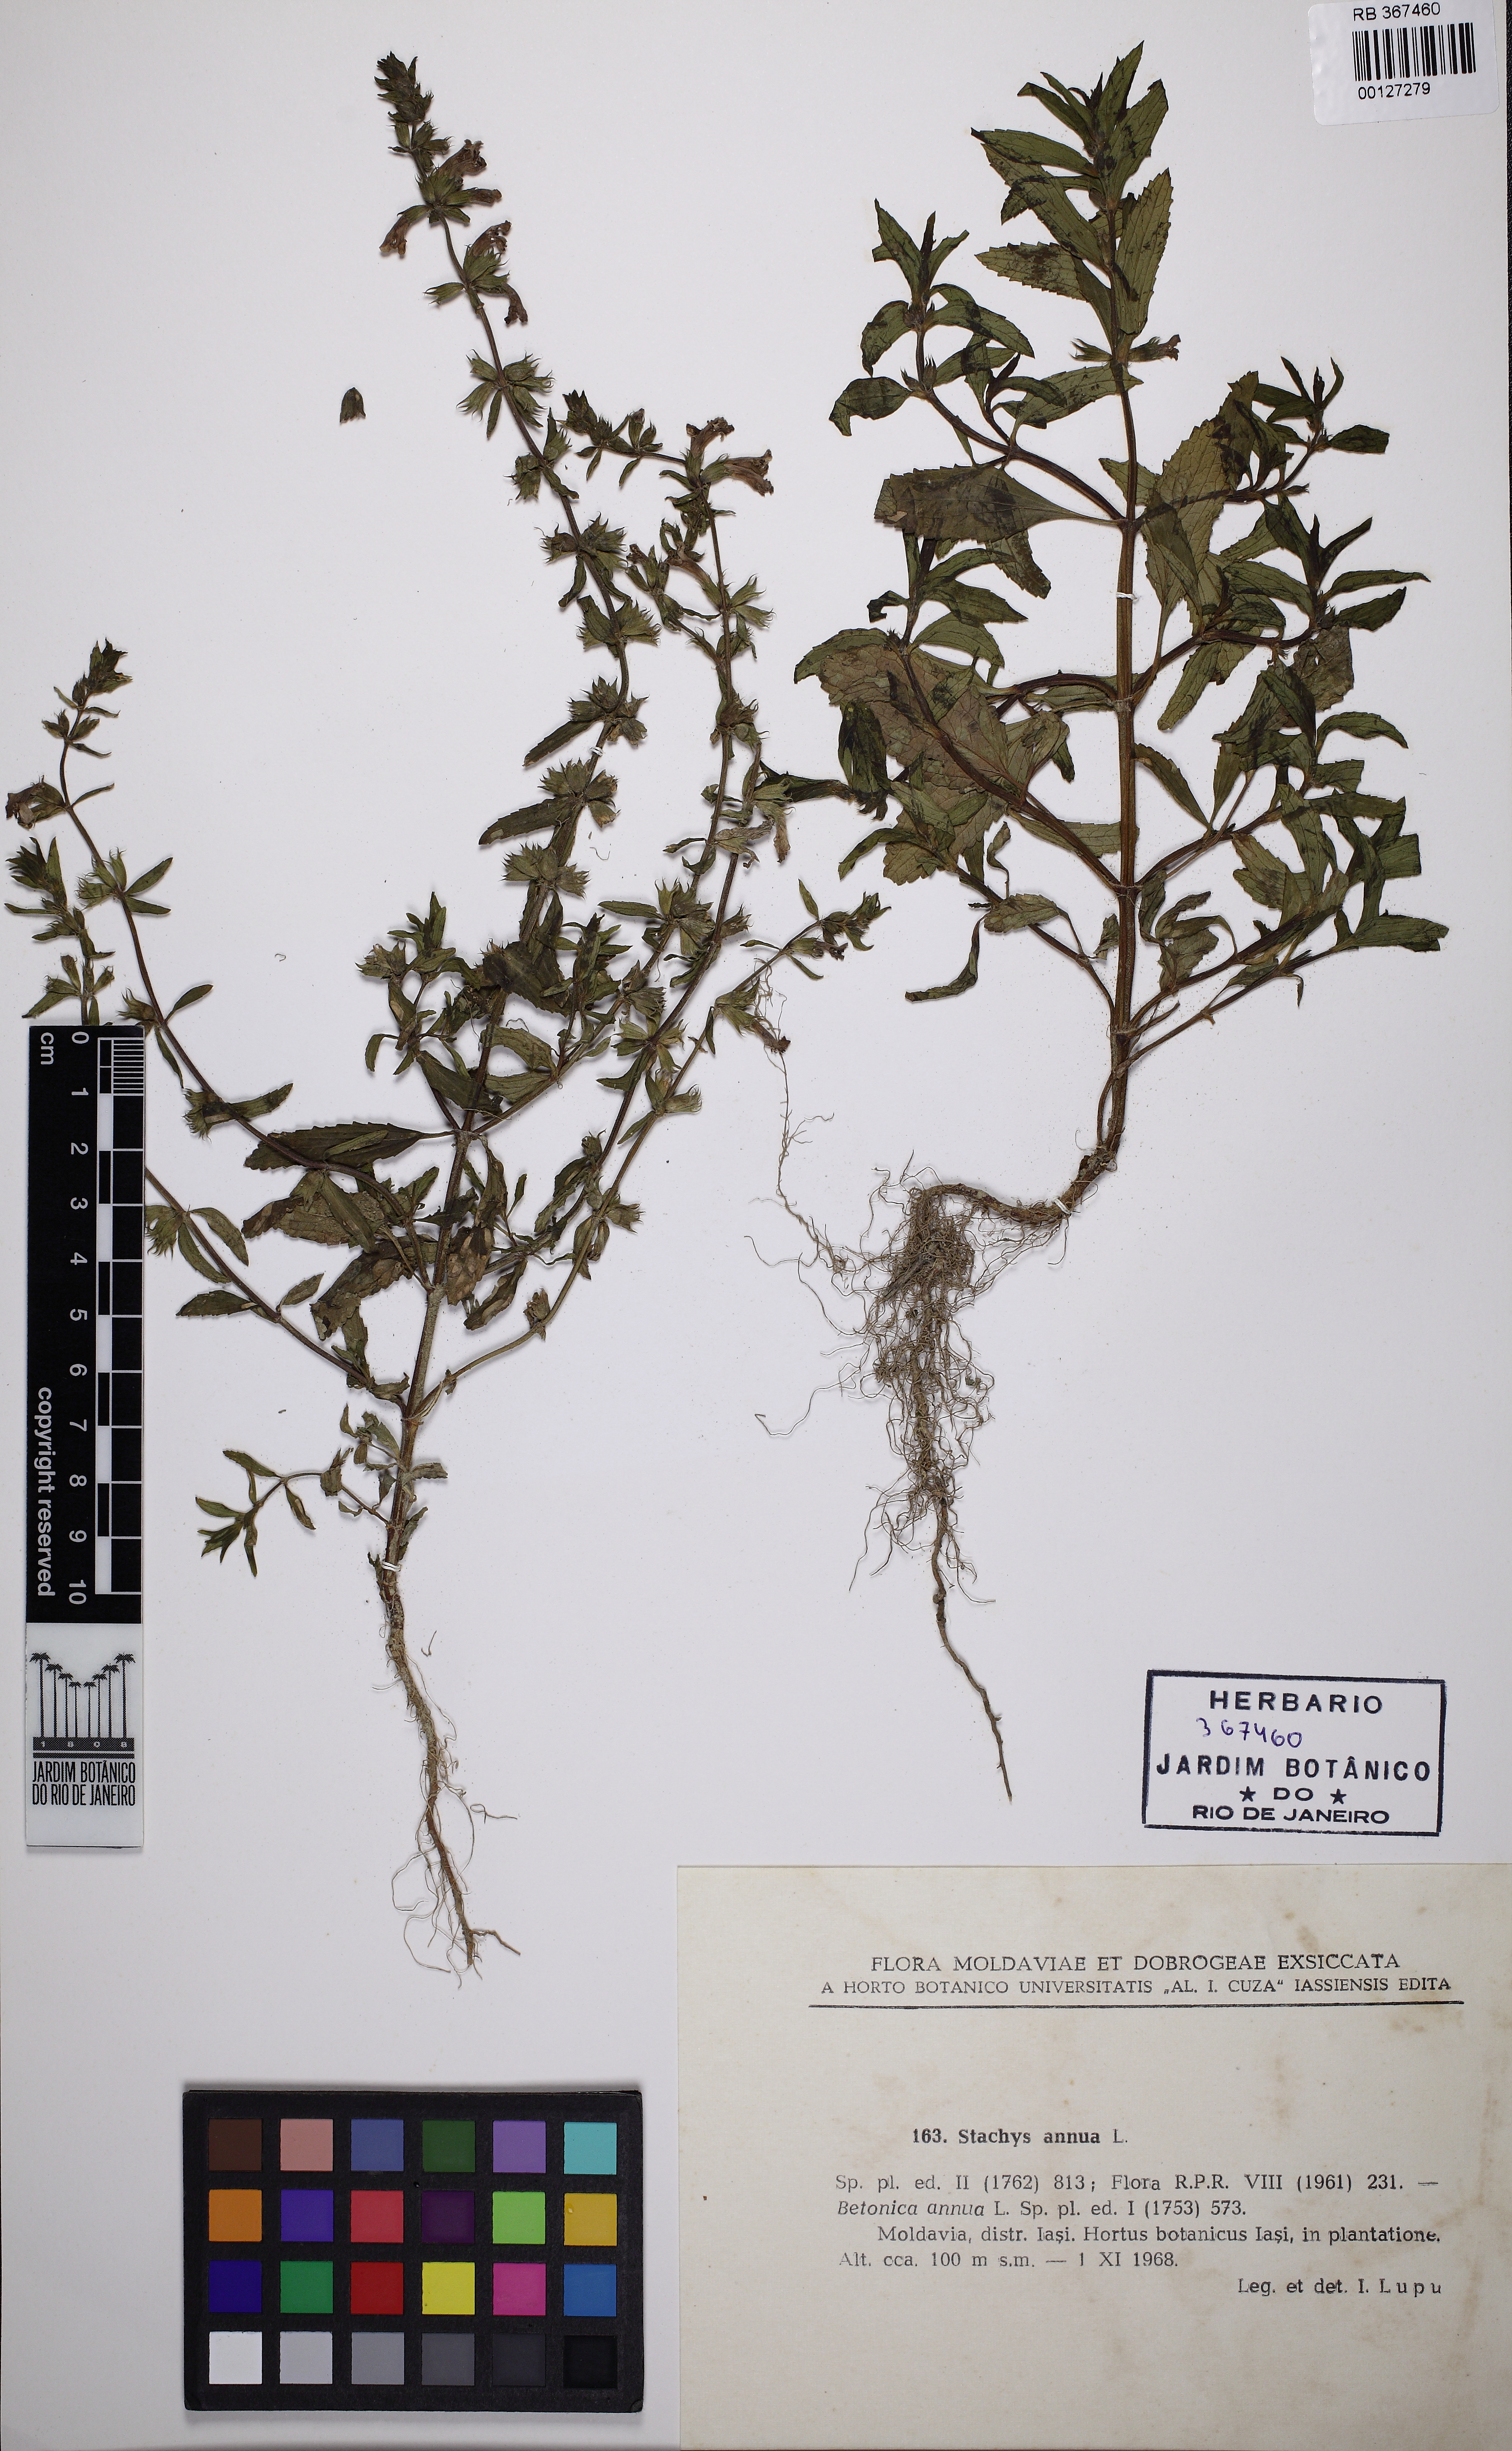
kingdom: Plantae
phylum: Tracheophyta
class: Magnoliopsida
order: Lamiales
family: Lamiaceae
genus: Stachys
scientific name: Stachys annua
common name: Annual yellow-woundwort
